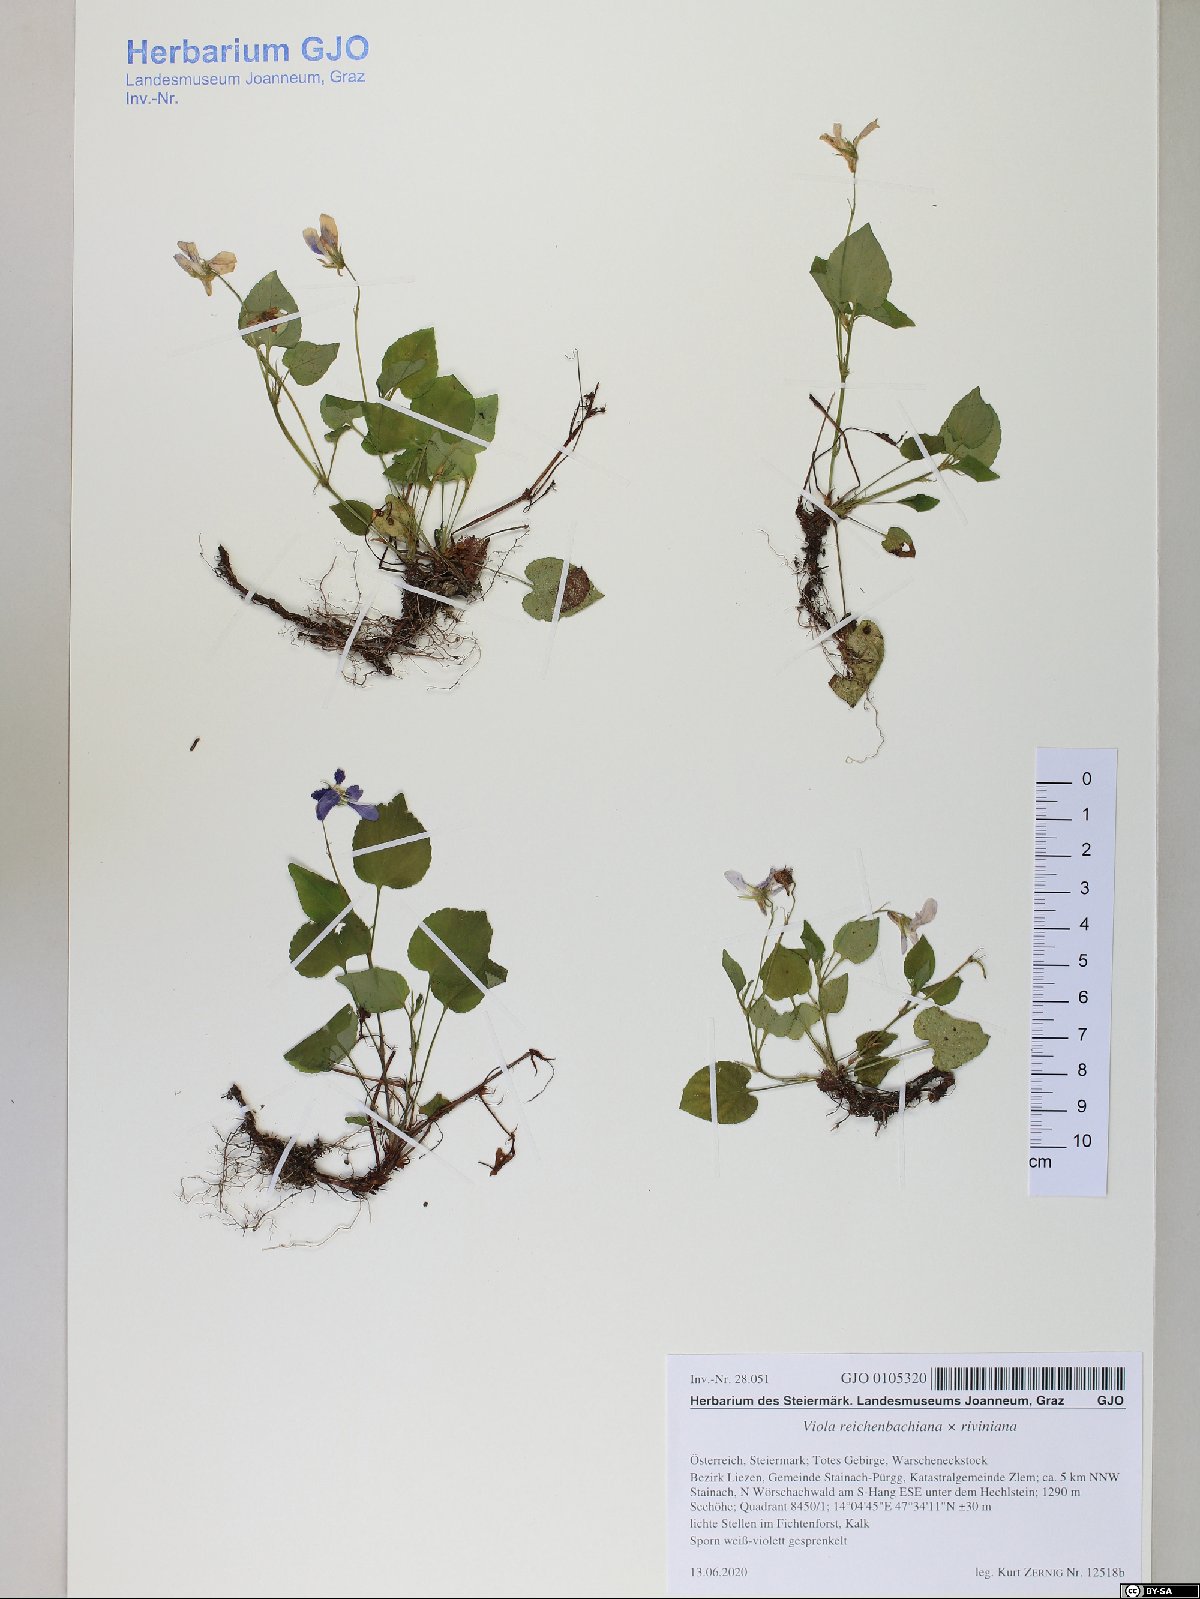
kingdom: Plantae
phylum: Tracheophyta
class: Magnoliopsida
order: Malpighiales
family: Violaceae
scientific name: Violaceae
